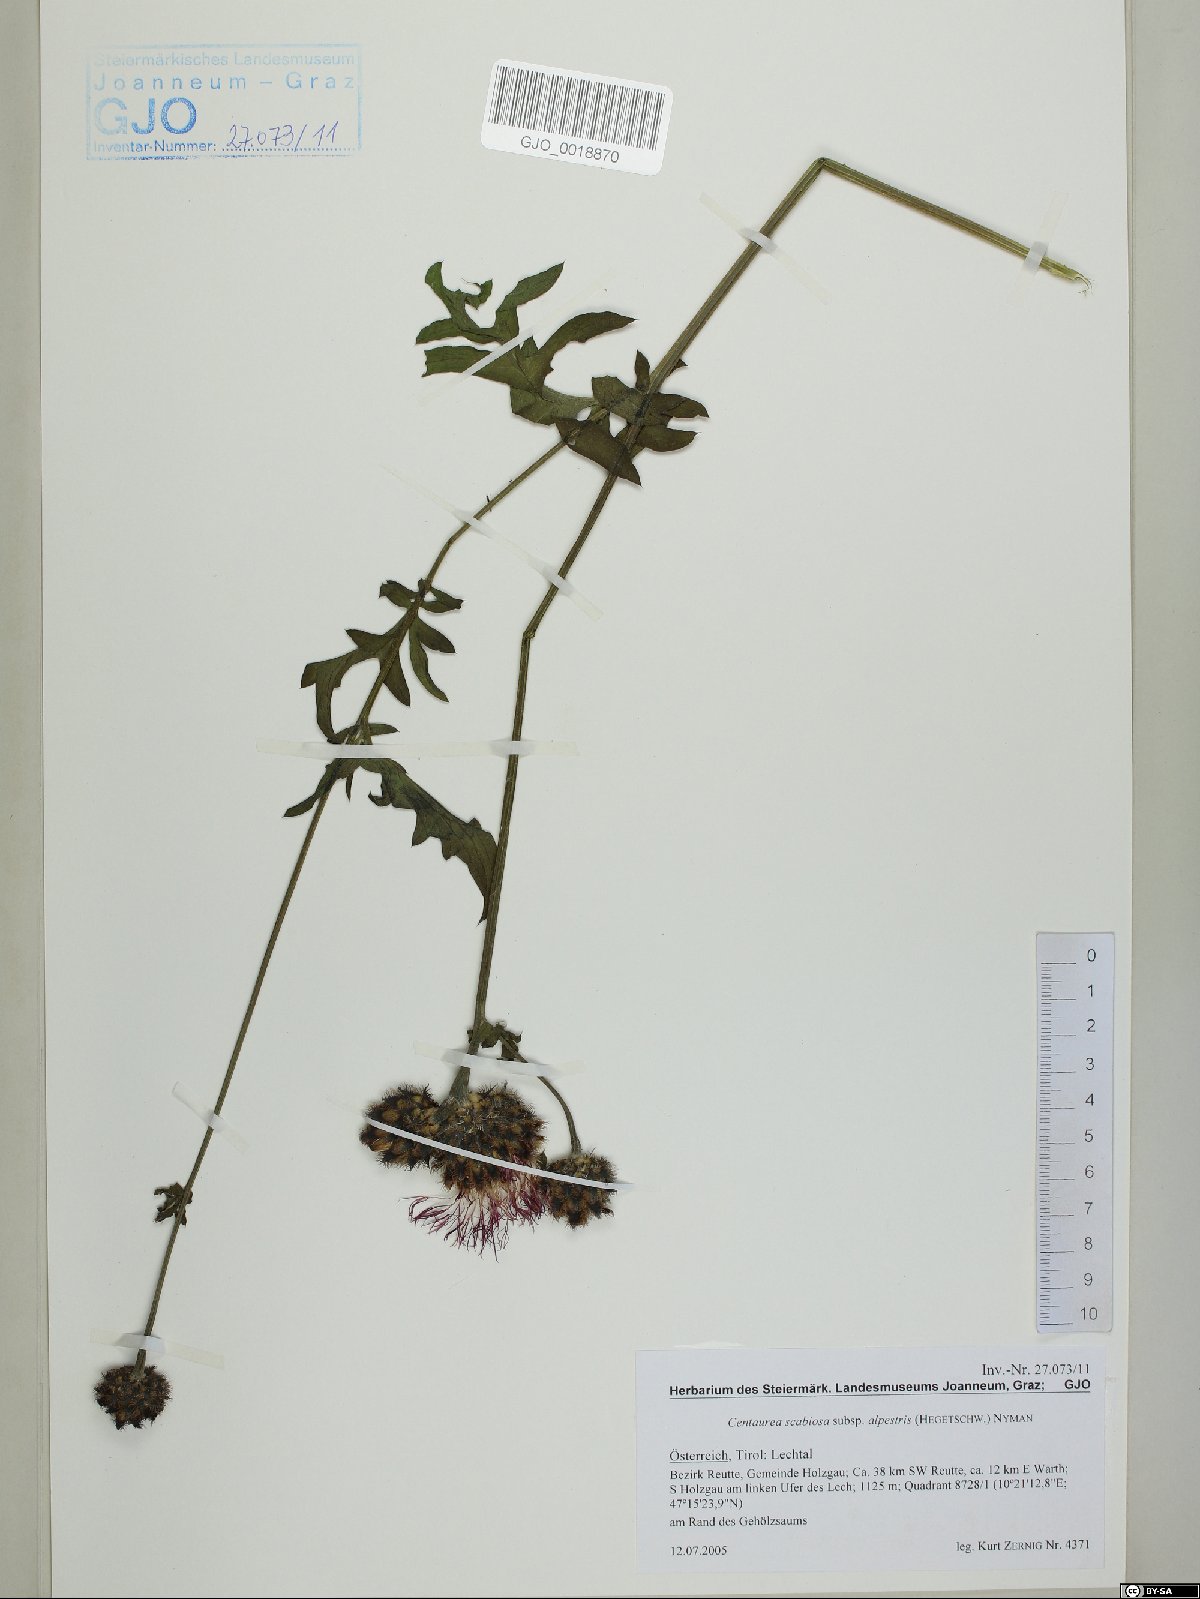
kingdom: Plantae
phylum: Tracheophyta
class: Magnoliopsida
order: Asterales
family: Asteraceae
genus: Centaurea
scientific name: Centaurea scabiosa
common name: Greater knapweed
